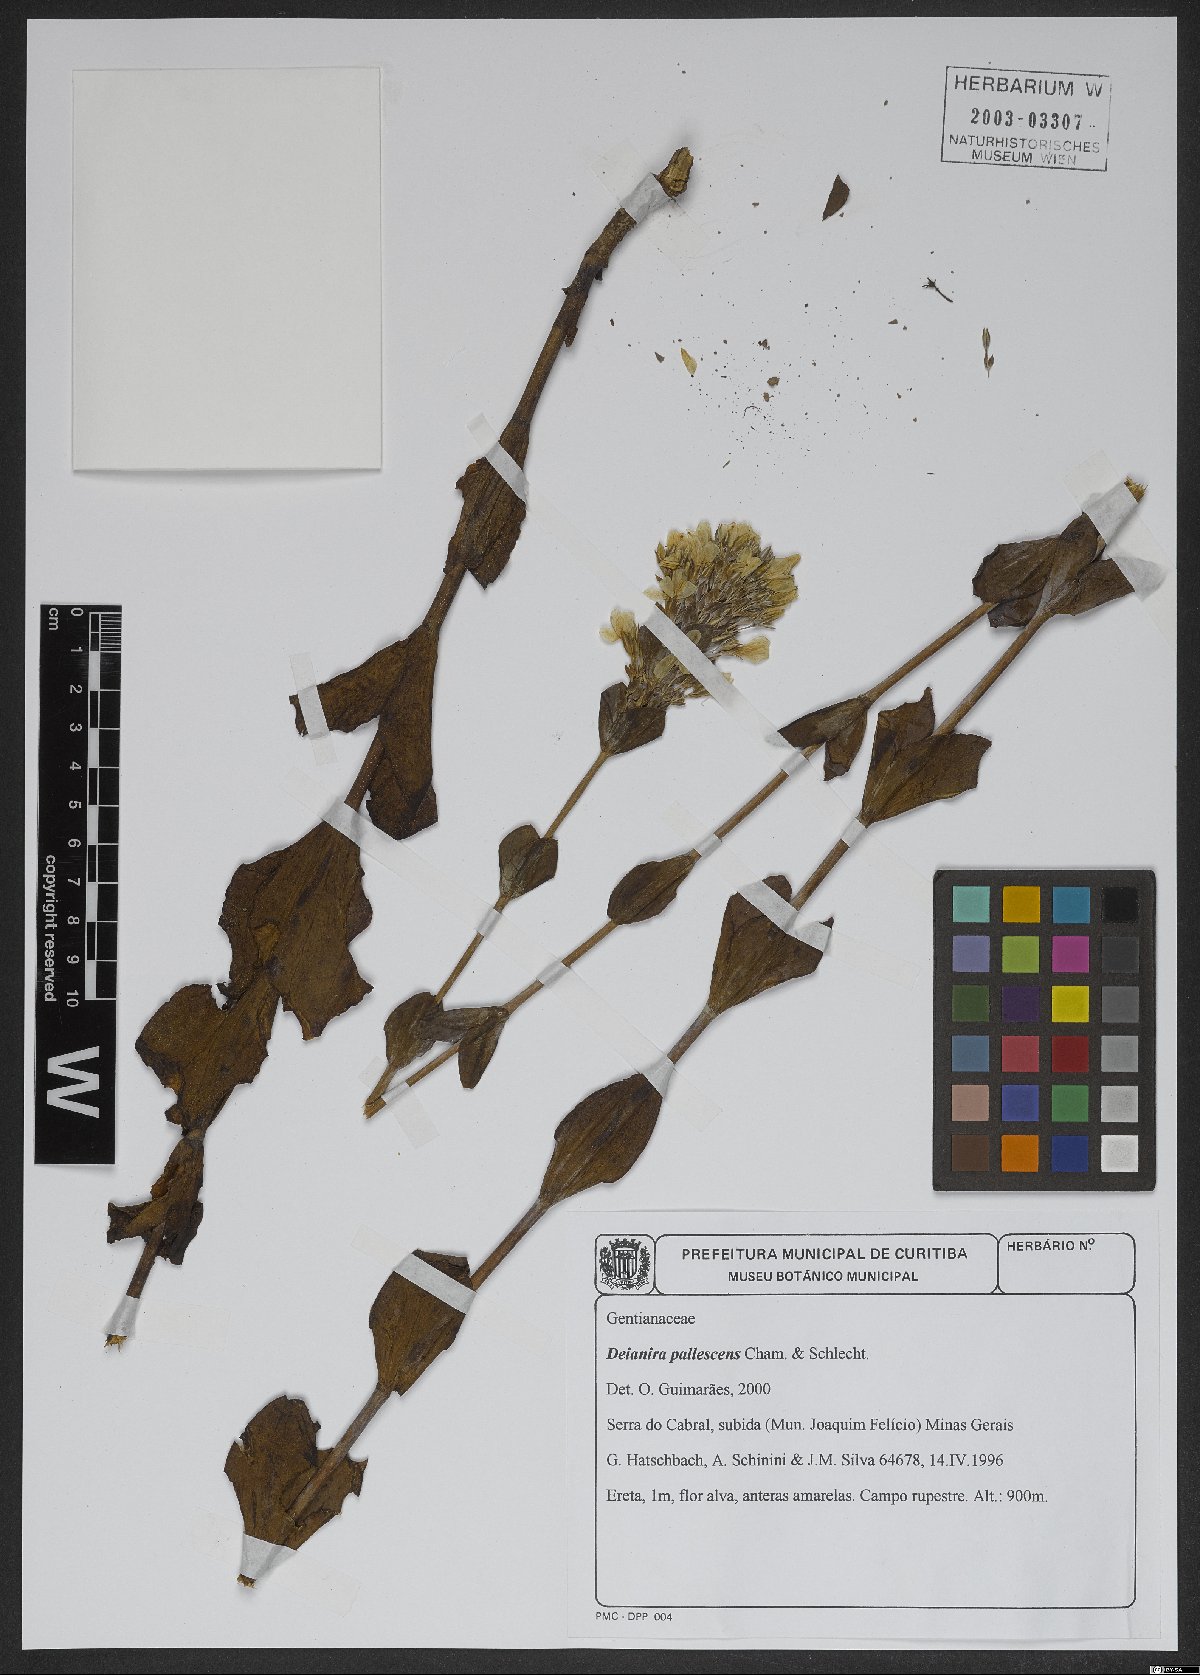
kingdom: Plantae
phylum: Tracheophyta
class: Magnoliopsida
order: Gentianales
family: Gentianaceae
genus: Deianira
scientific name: Deianira pallescens
